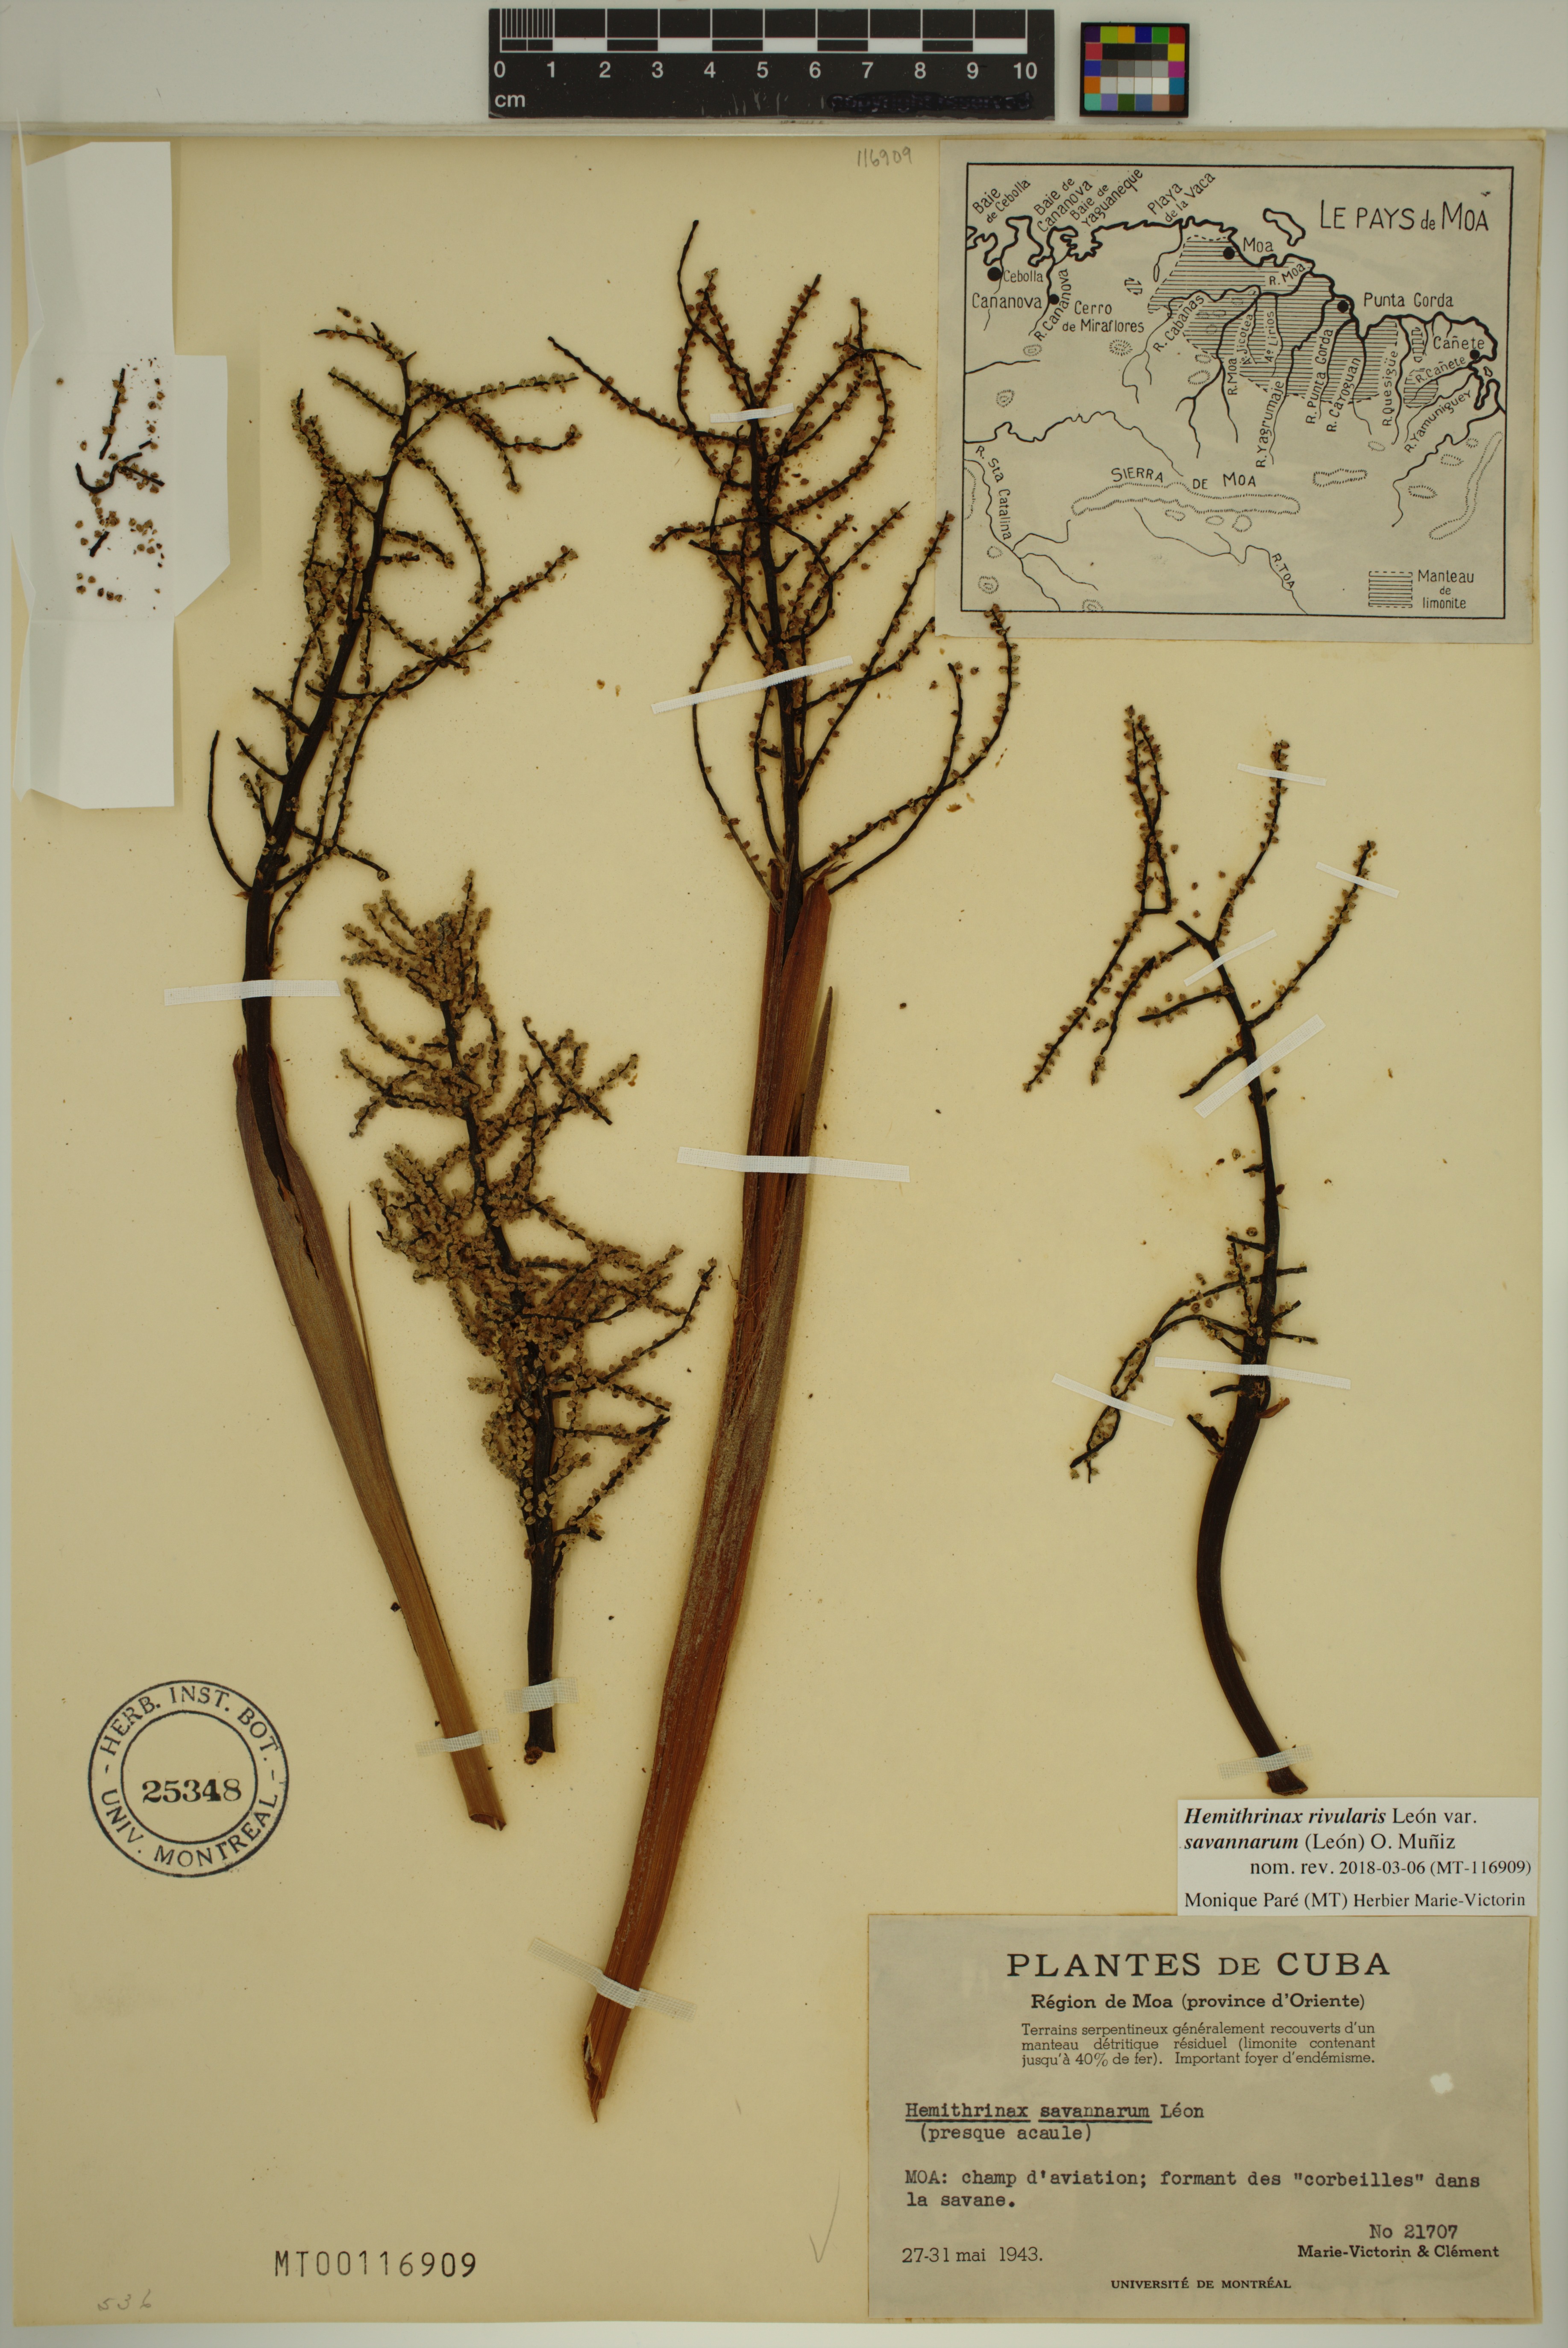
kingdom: Plantae
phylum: Tracheophyta
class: Liliopsida
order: Arecales
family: Arecaceae
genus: Hemithrinax
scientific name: Hemithrinax rivularis
